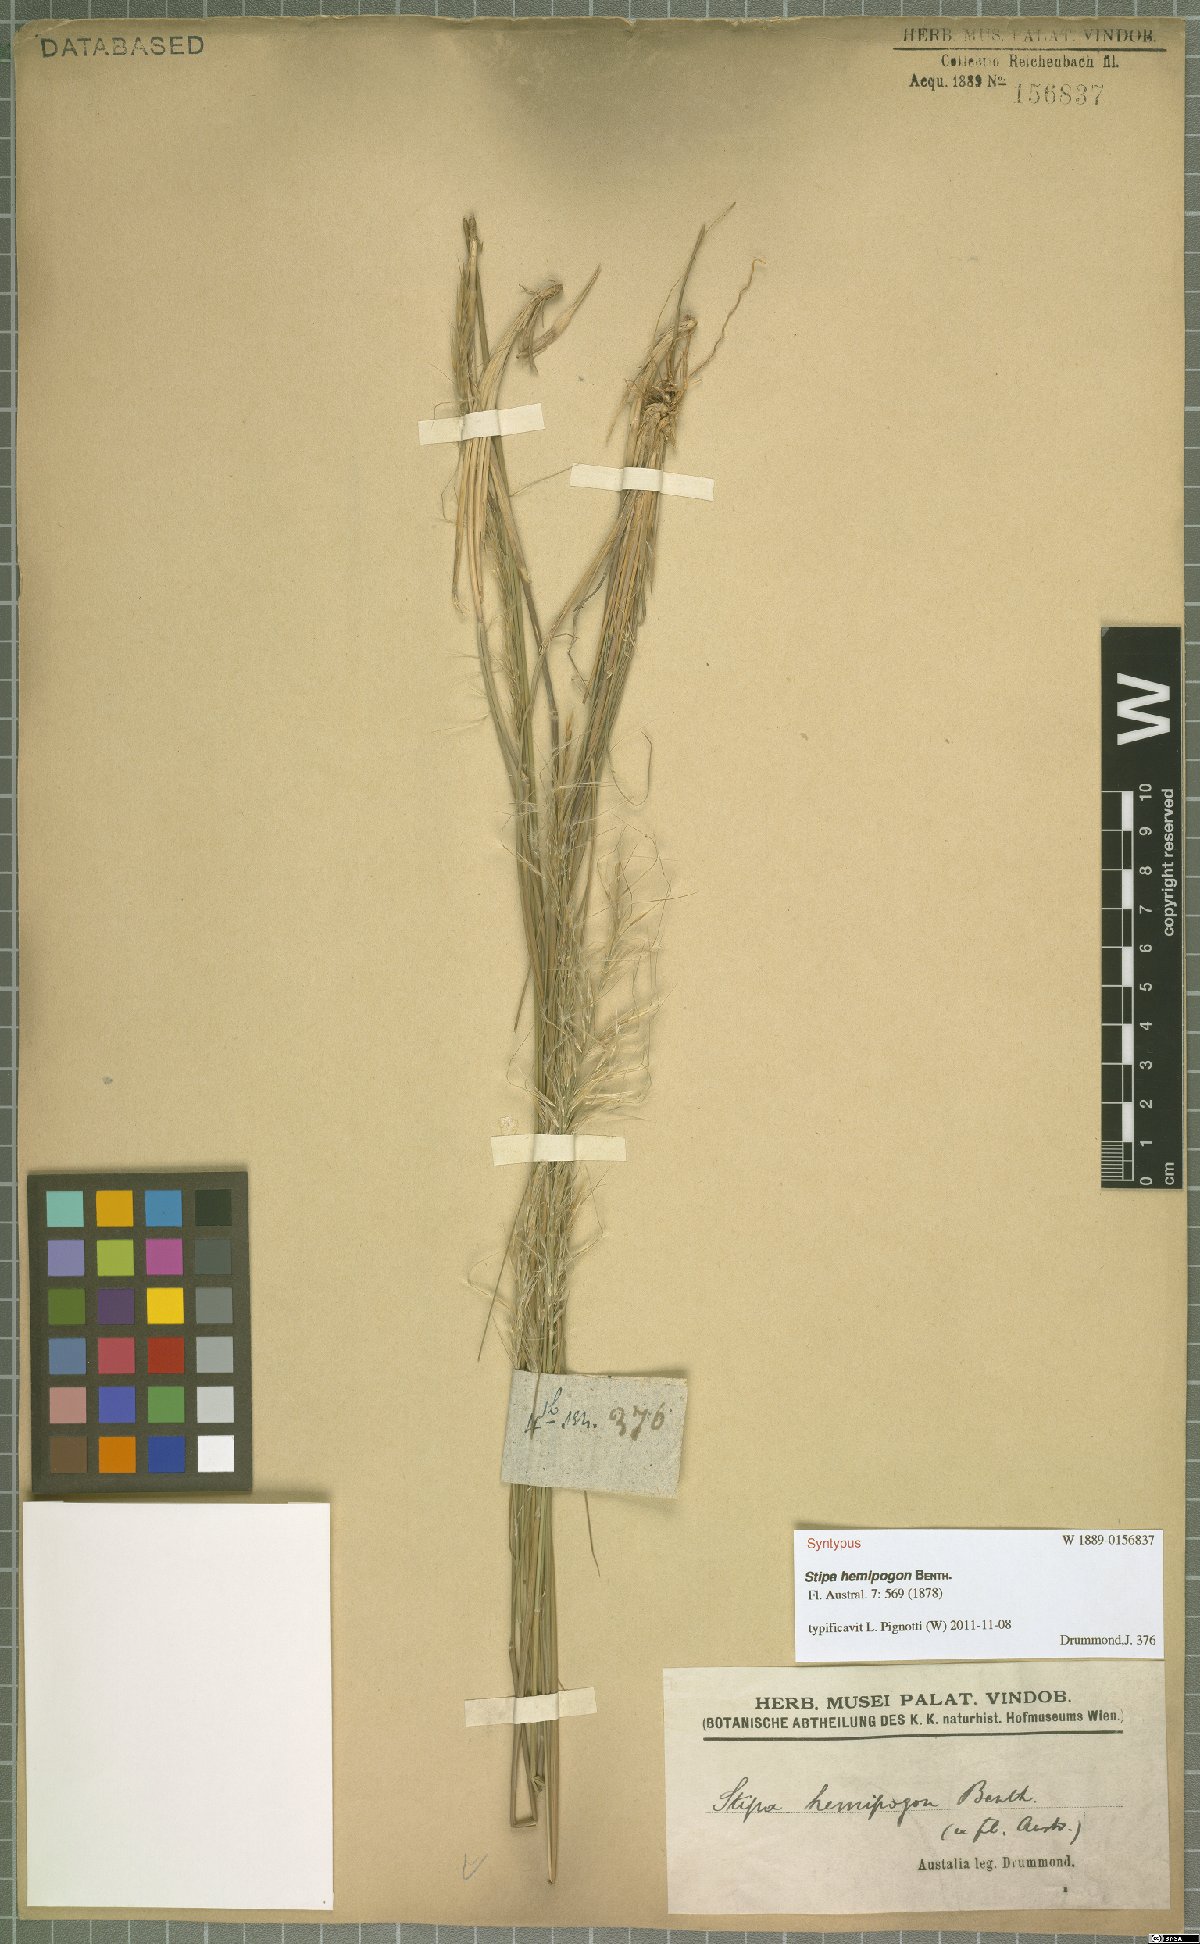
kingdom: Plantae
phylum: Tracheophyta
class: Liliopsida
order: Poales
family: Poaceae
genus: Austrostipa
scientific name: Austrostipa hemipogon
